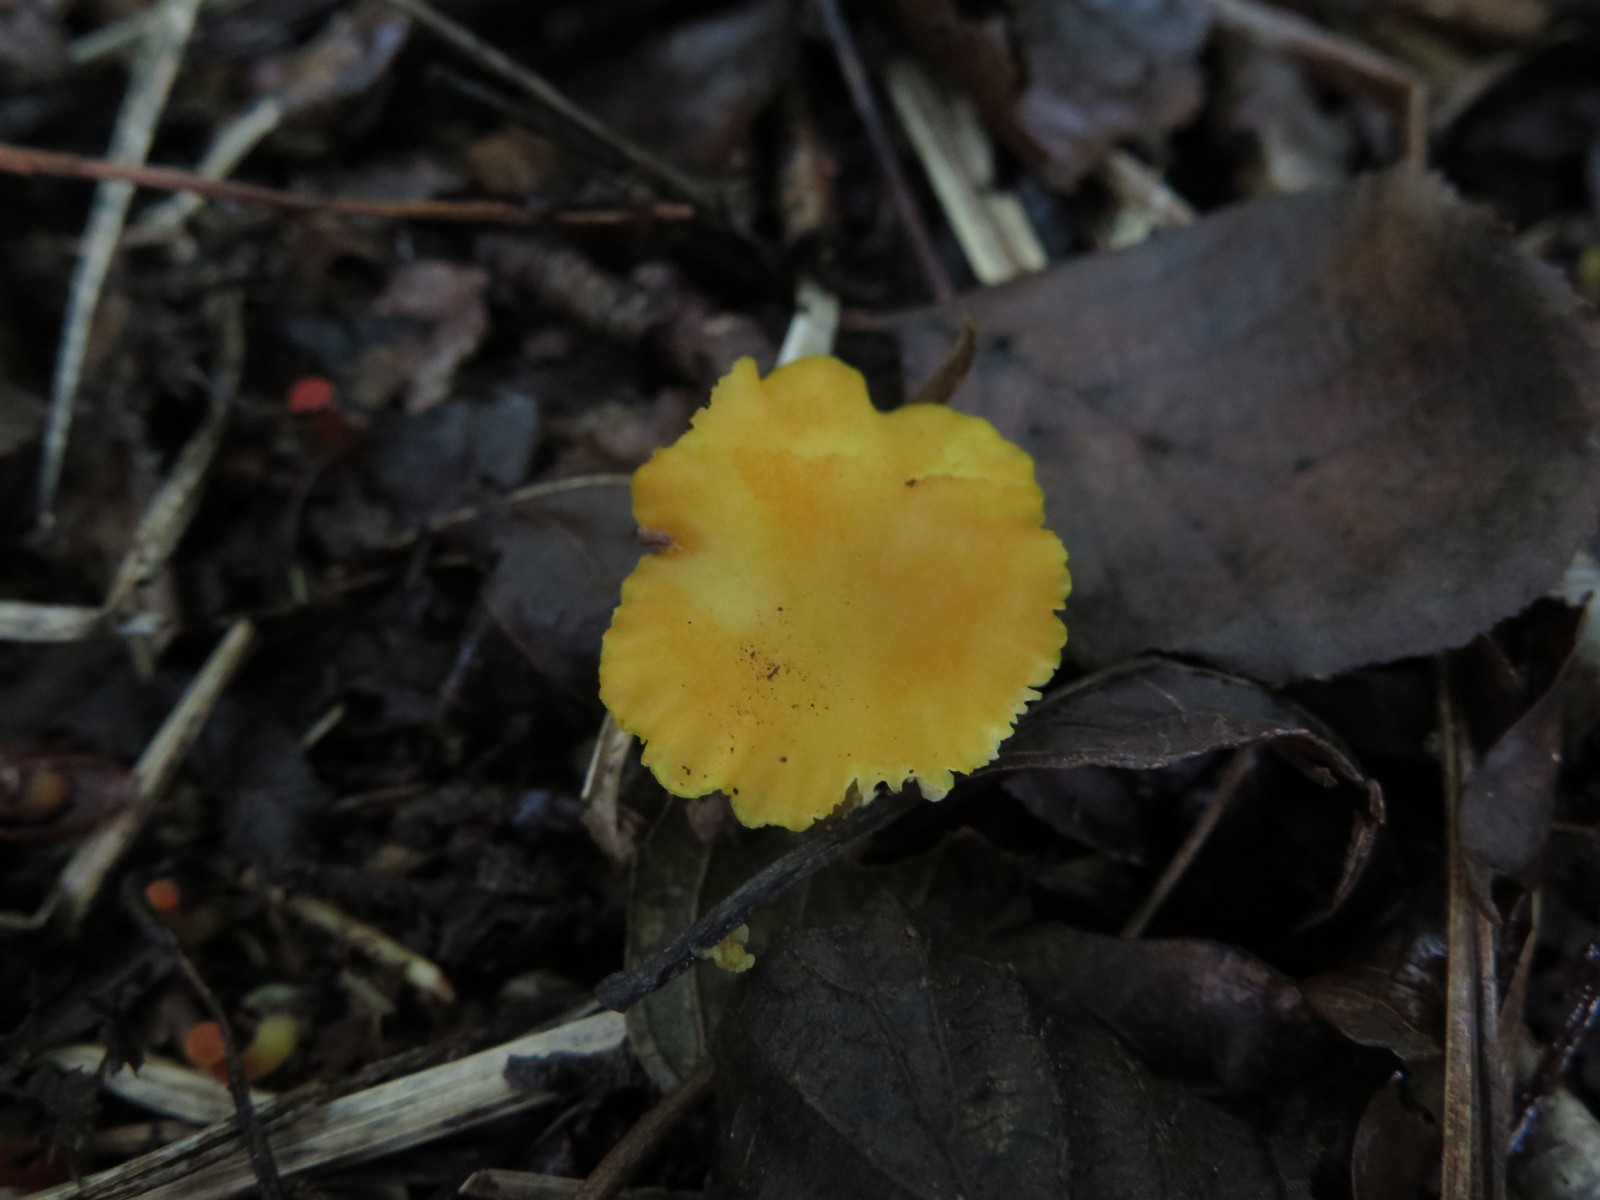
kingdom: Fungi
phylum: Basidiomycota
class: Agaricomycetes
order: Agaricales
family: Hygrophoraceae
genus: Hygrocybe
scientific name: Hygrocybe
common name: vokshat
